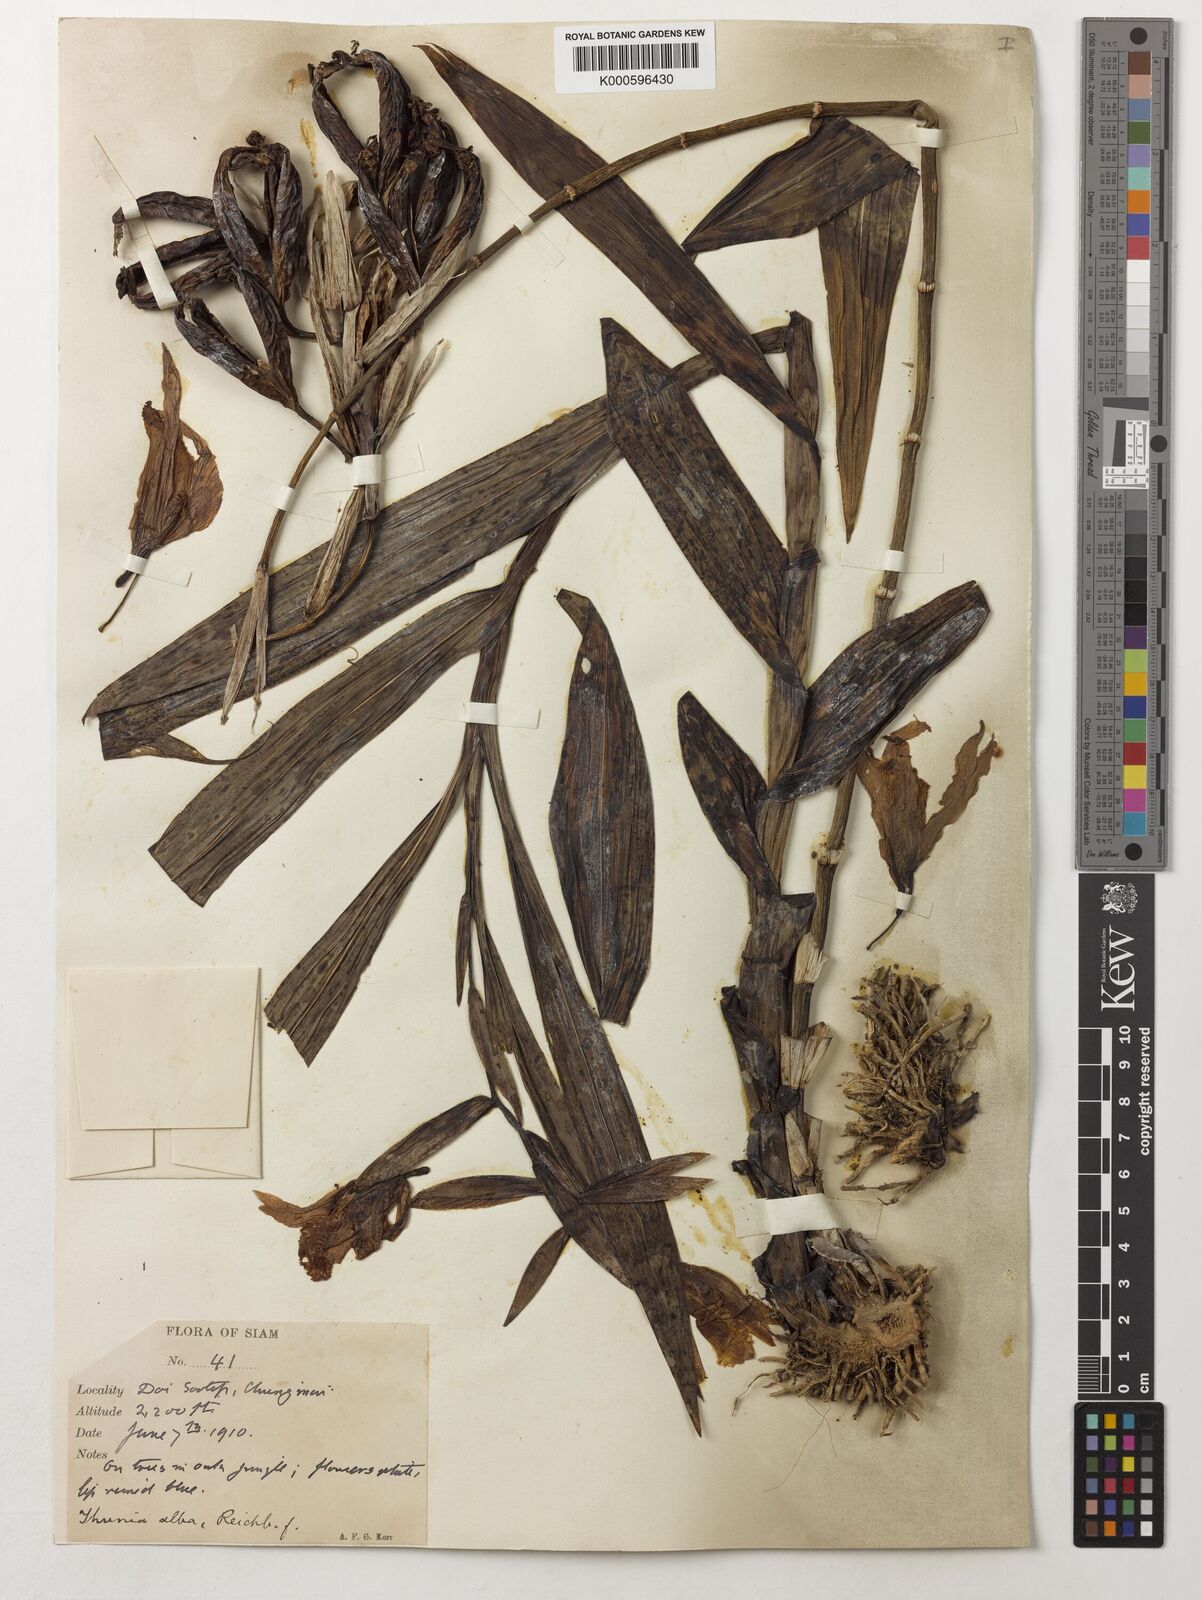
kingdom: Plantae
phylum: Tracheophyta
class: Liliopsida
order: Asparagales
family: Orchidaceae
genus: Thunia
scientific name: Thunia alba
